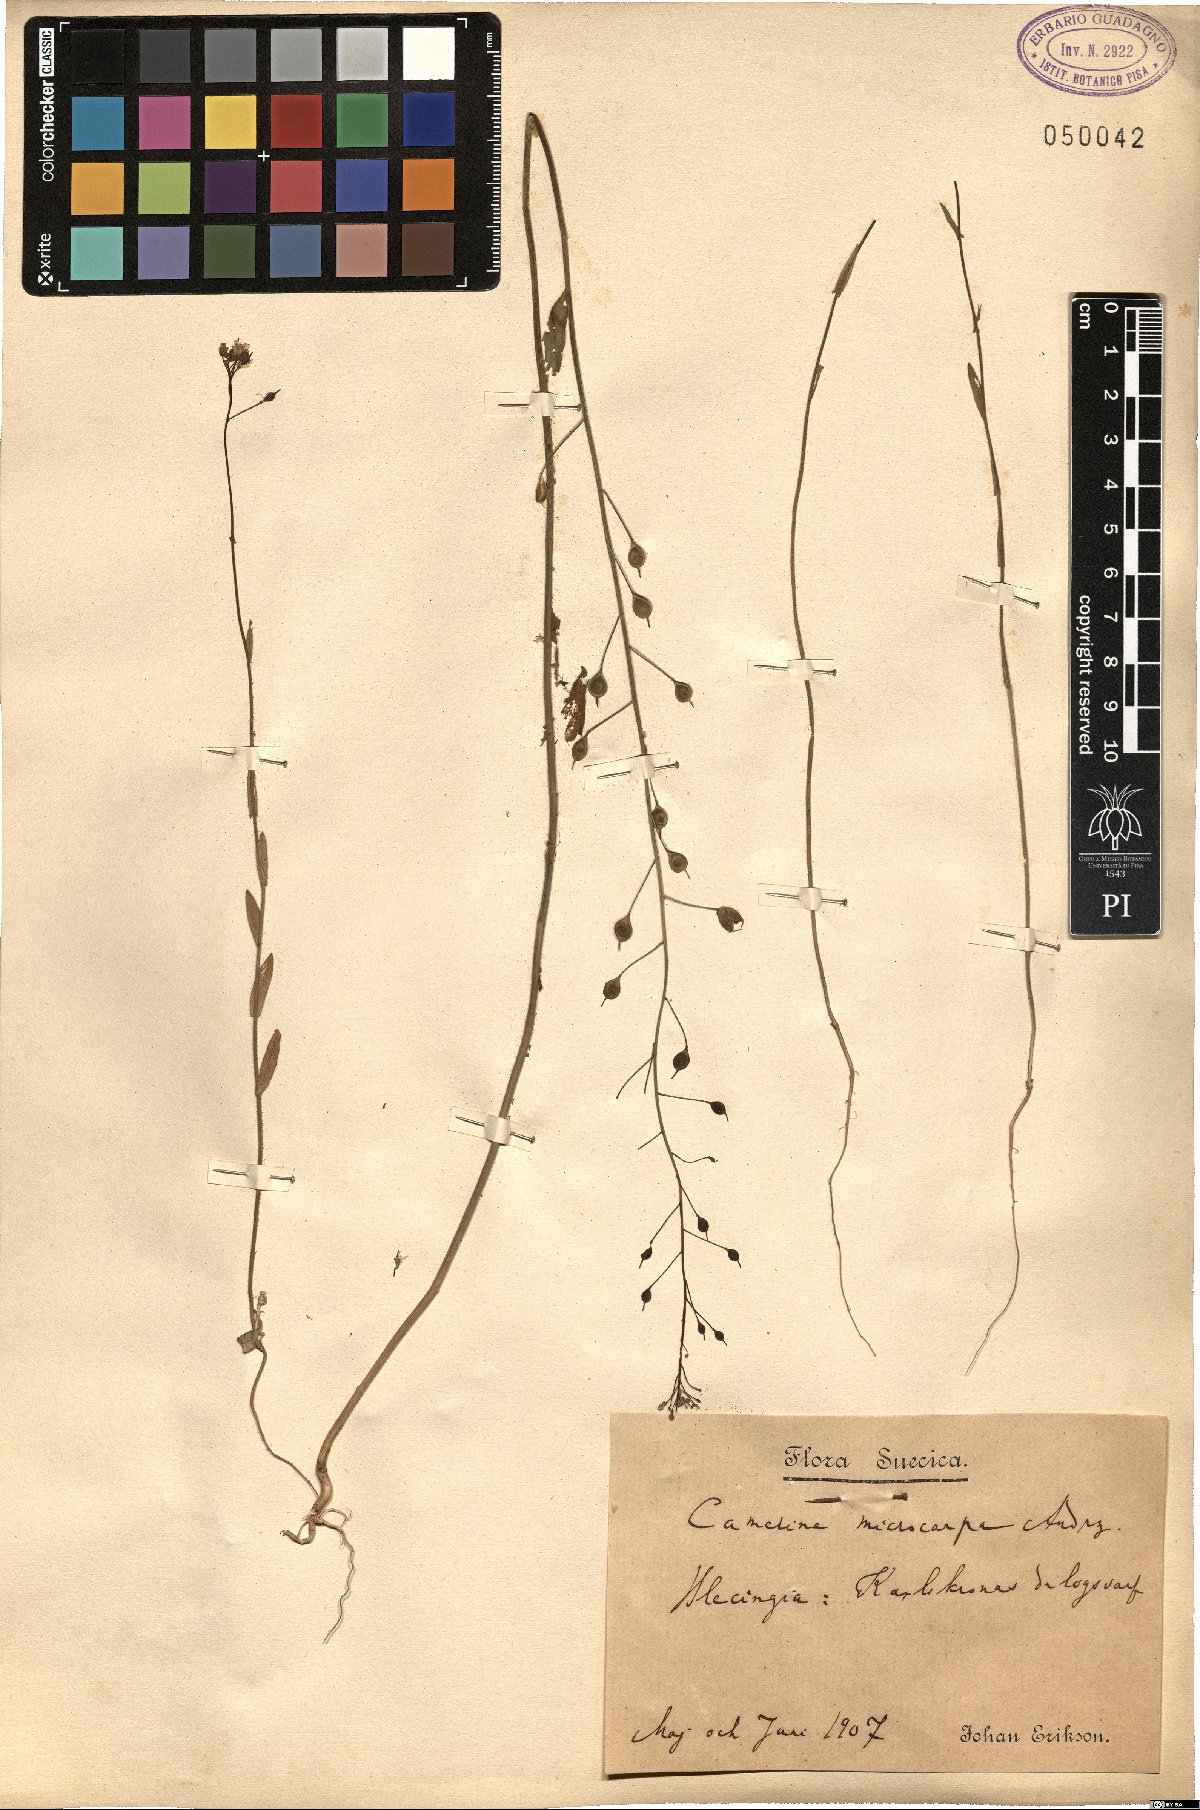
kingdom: Plantae
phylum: Tracheophyta
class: Magnoliopsida
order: Brassicales
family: Brassicaceae
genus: Camelina
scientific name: Camelina microcarpa
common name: Lesser gold-of-pleasure
